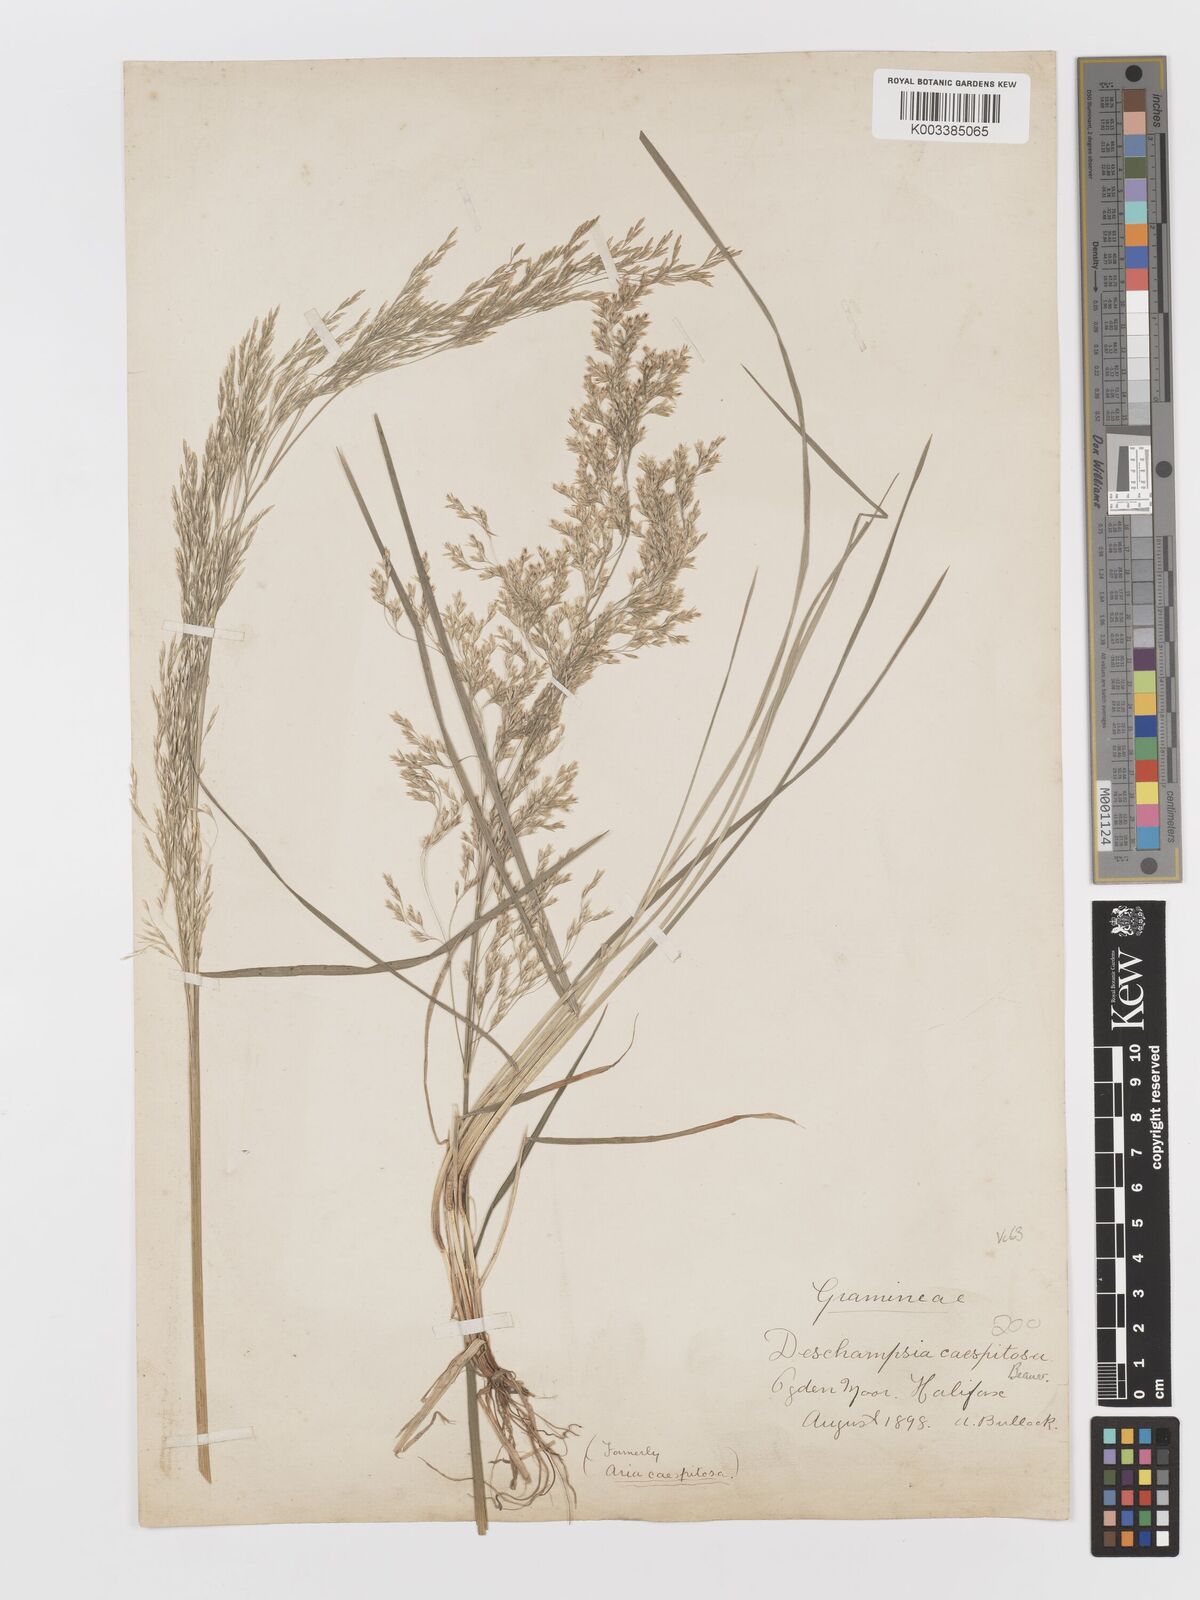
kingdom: Plantae
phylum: Tracheophyta
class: Liliopsida
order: Poales
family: Poaceae
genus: Deschampsia
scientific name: Deschampsia cespitosa
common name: Tufted hair-grass
